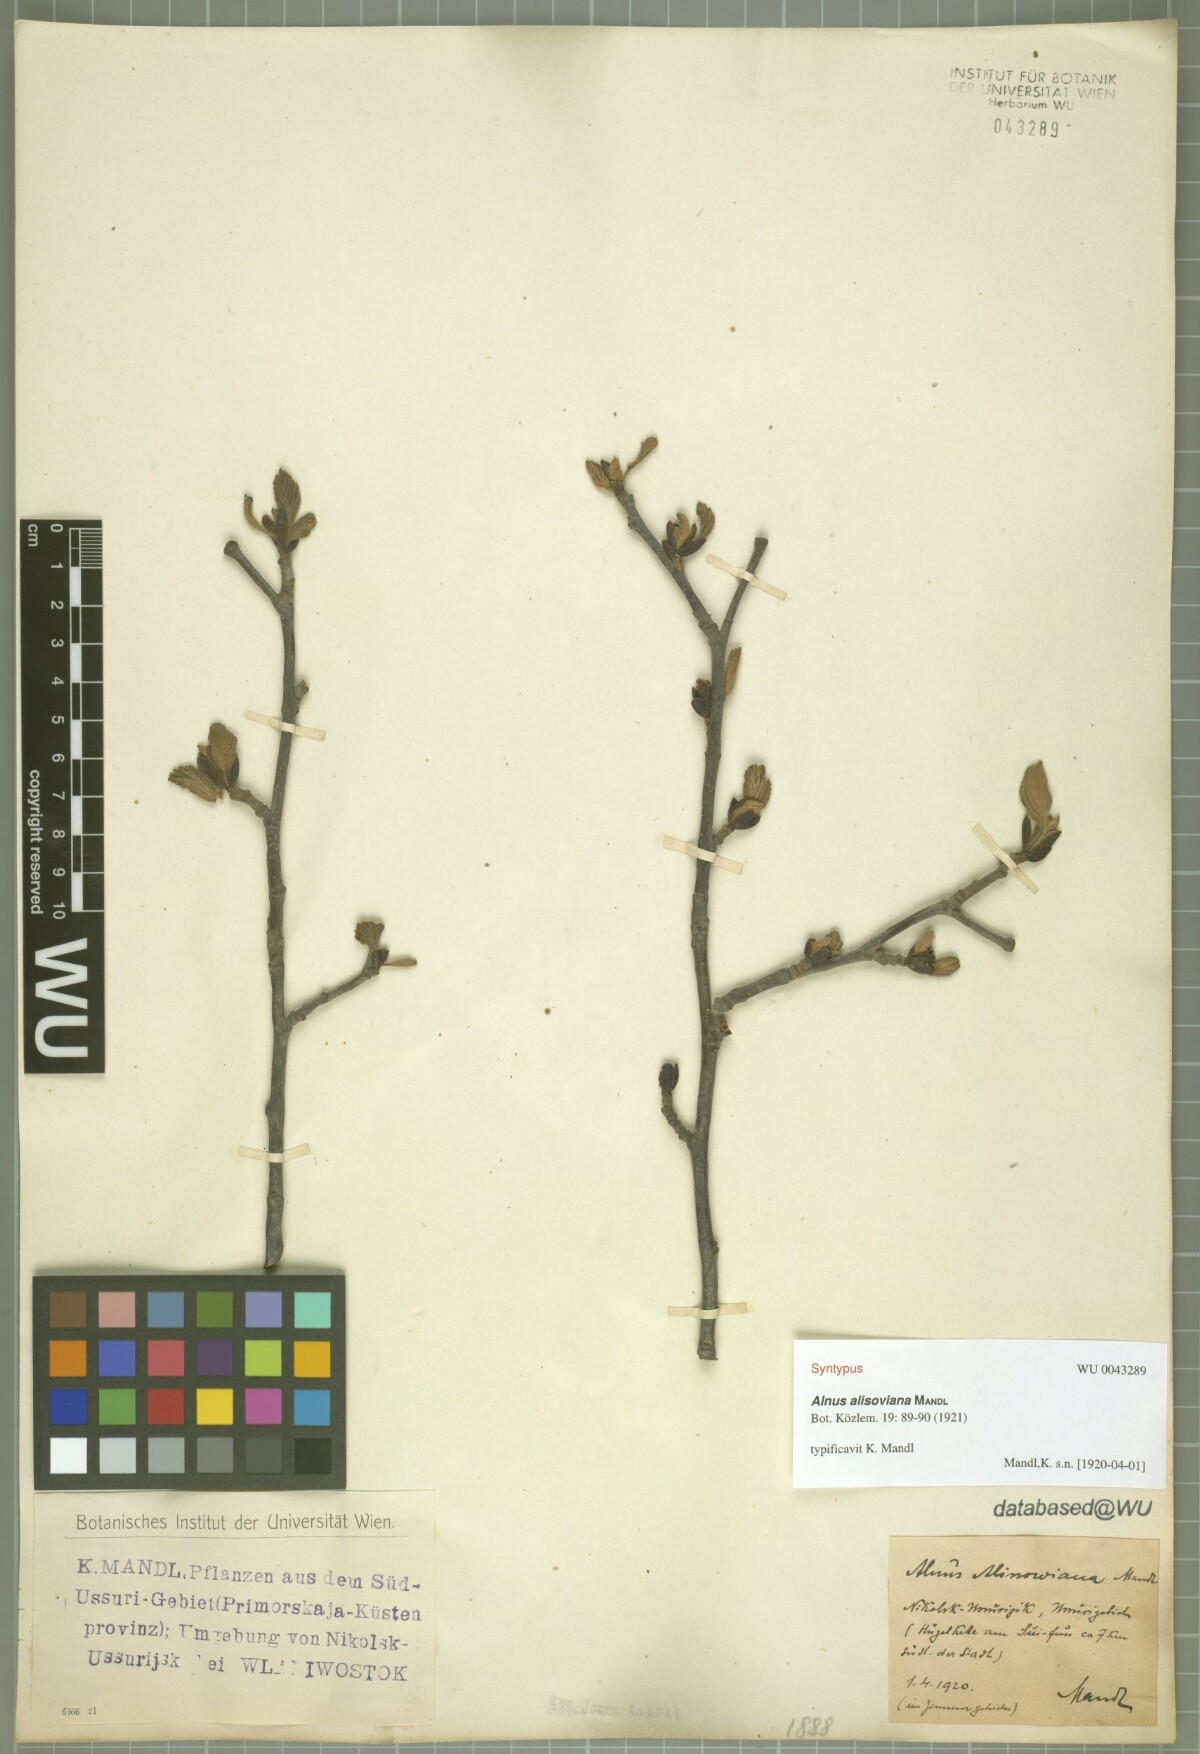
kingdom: Plantae
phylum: Tracheophyta
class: Magnoliopsida
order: Fagales
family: Betulaceae
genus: Alnus
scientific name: Alnus incana
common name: Grey alder
